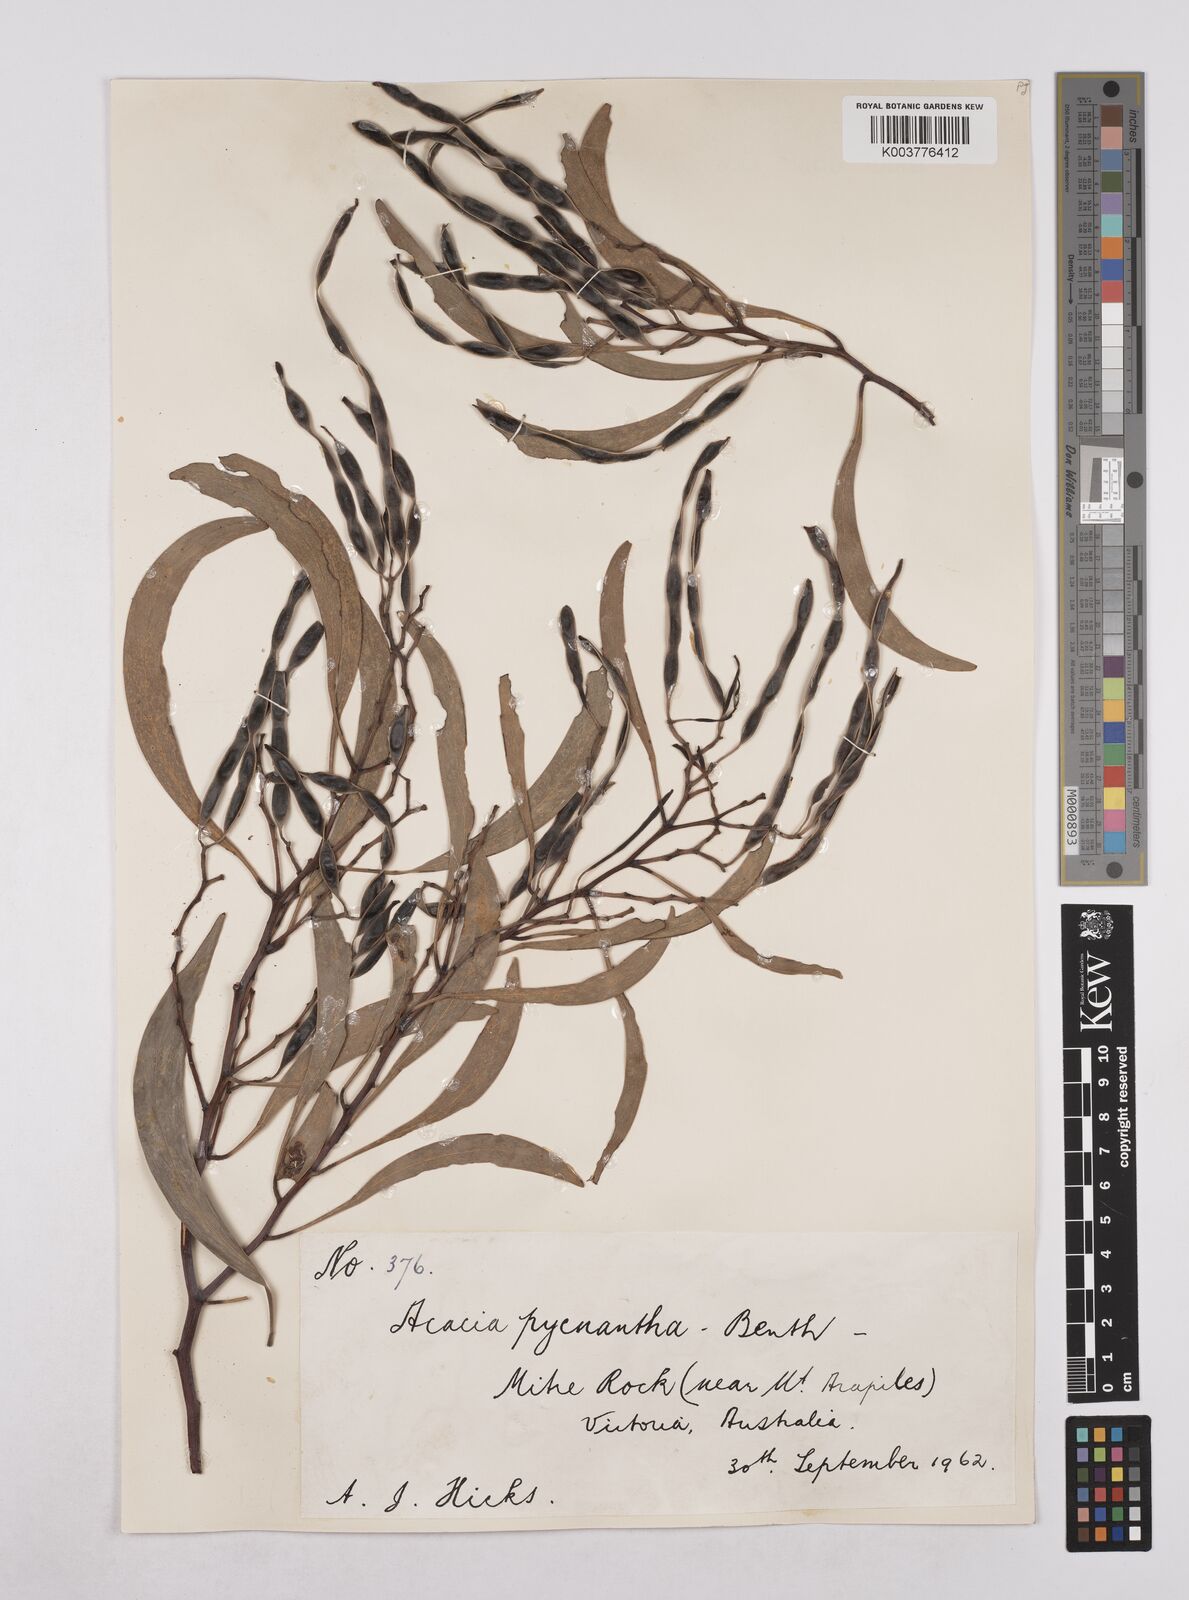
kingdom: Plantae
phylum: Tracheophyta
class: Magnoliopsida
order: Fabales
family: Fabaceae
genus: Acacia
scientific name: Acacia pycnantha
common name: Golden wattle
